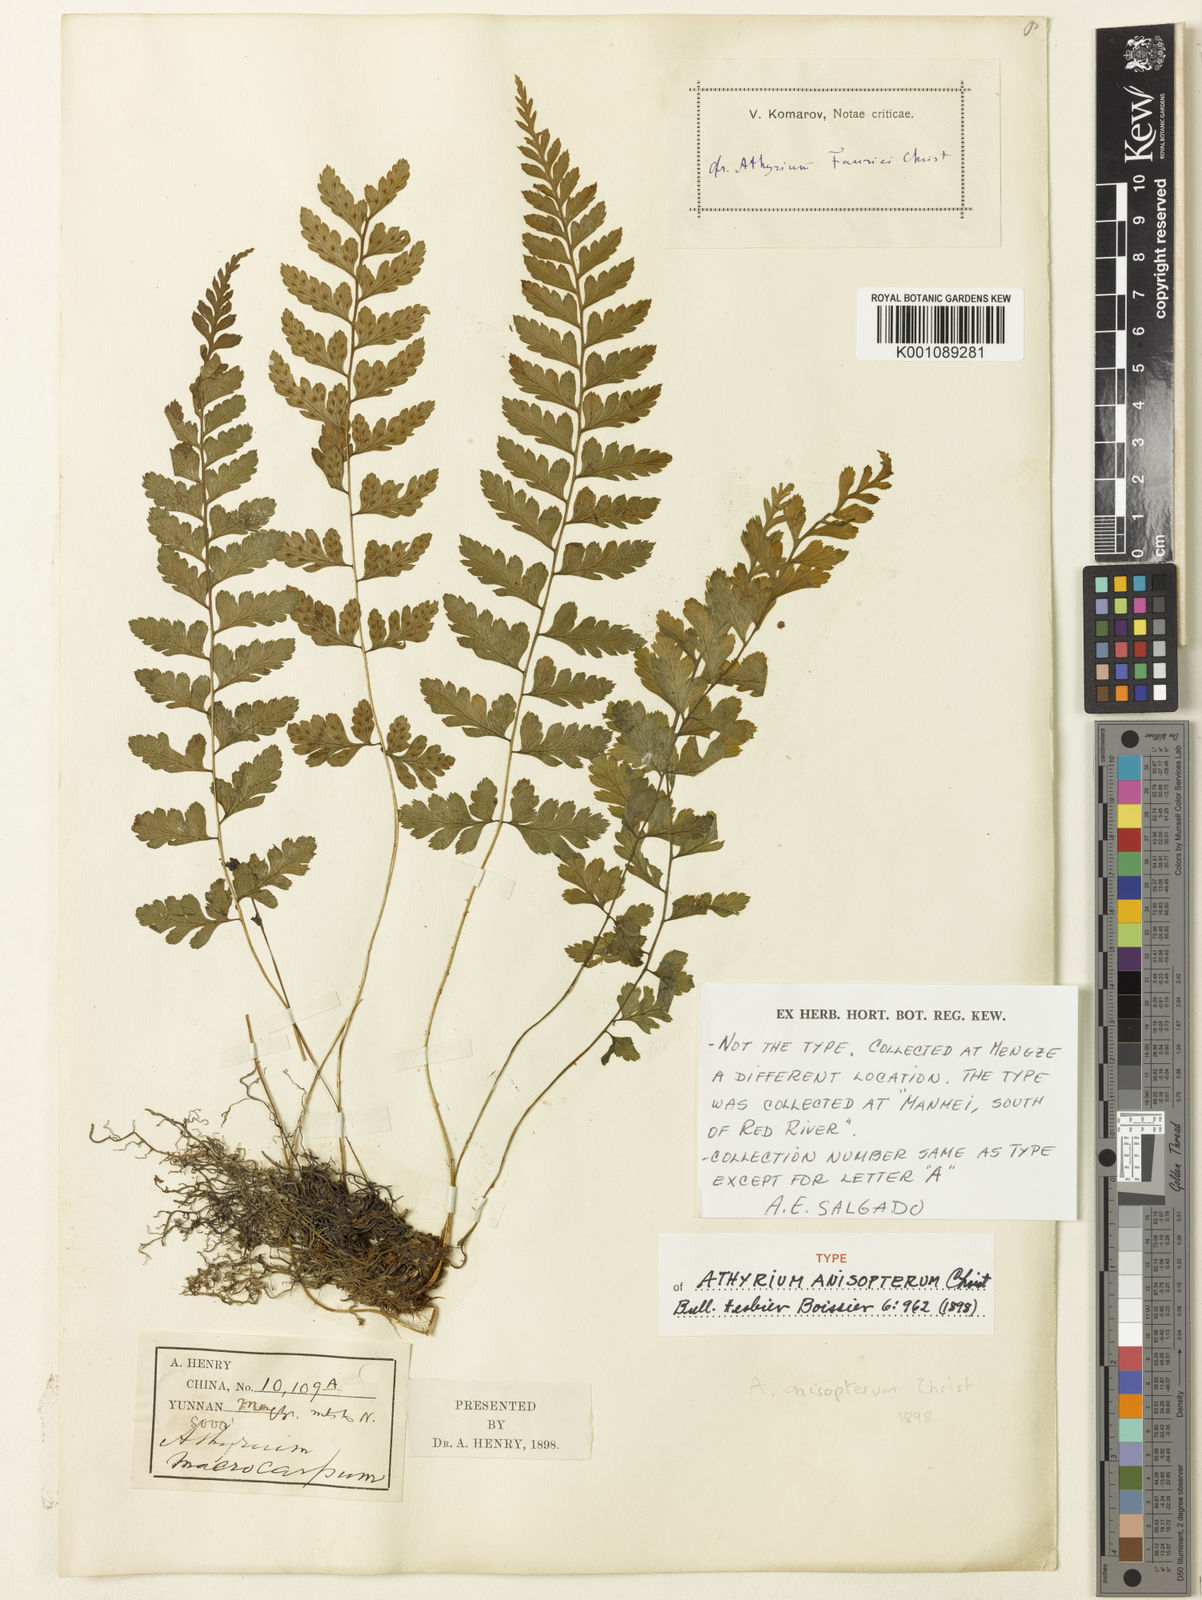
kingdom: Plantae
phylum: Tracheophyta
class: Polypodiopsida
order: Polypodiales
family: Athyriaceae
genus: Athyrium
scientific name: Athyrium anisopterum
